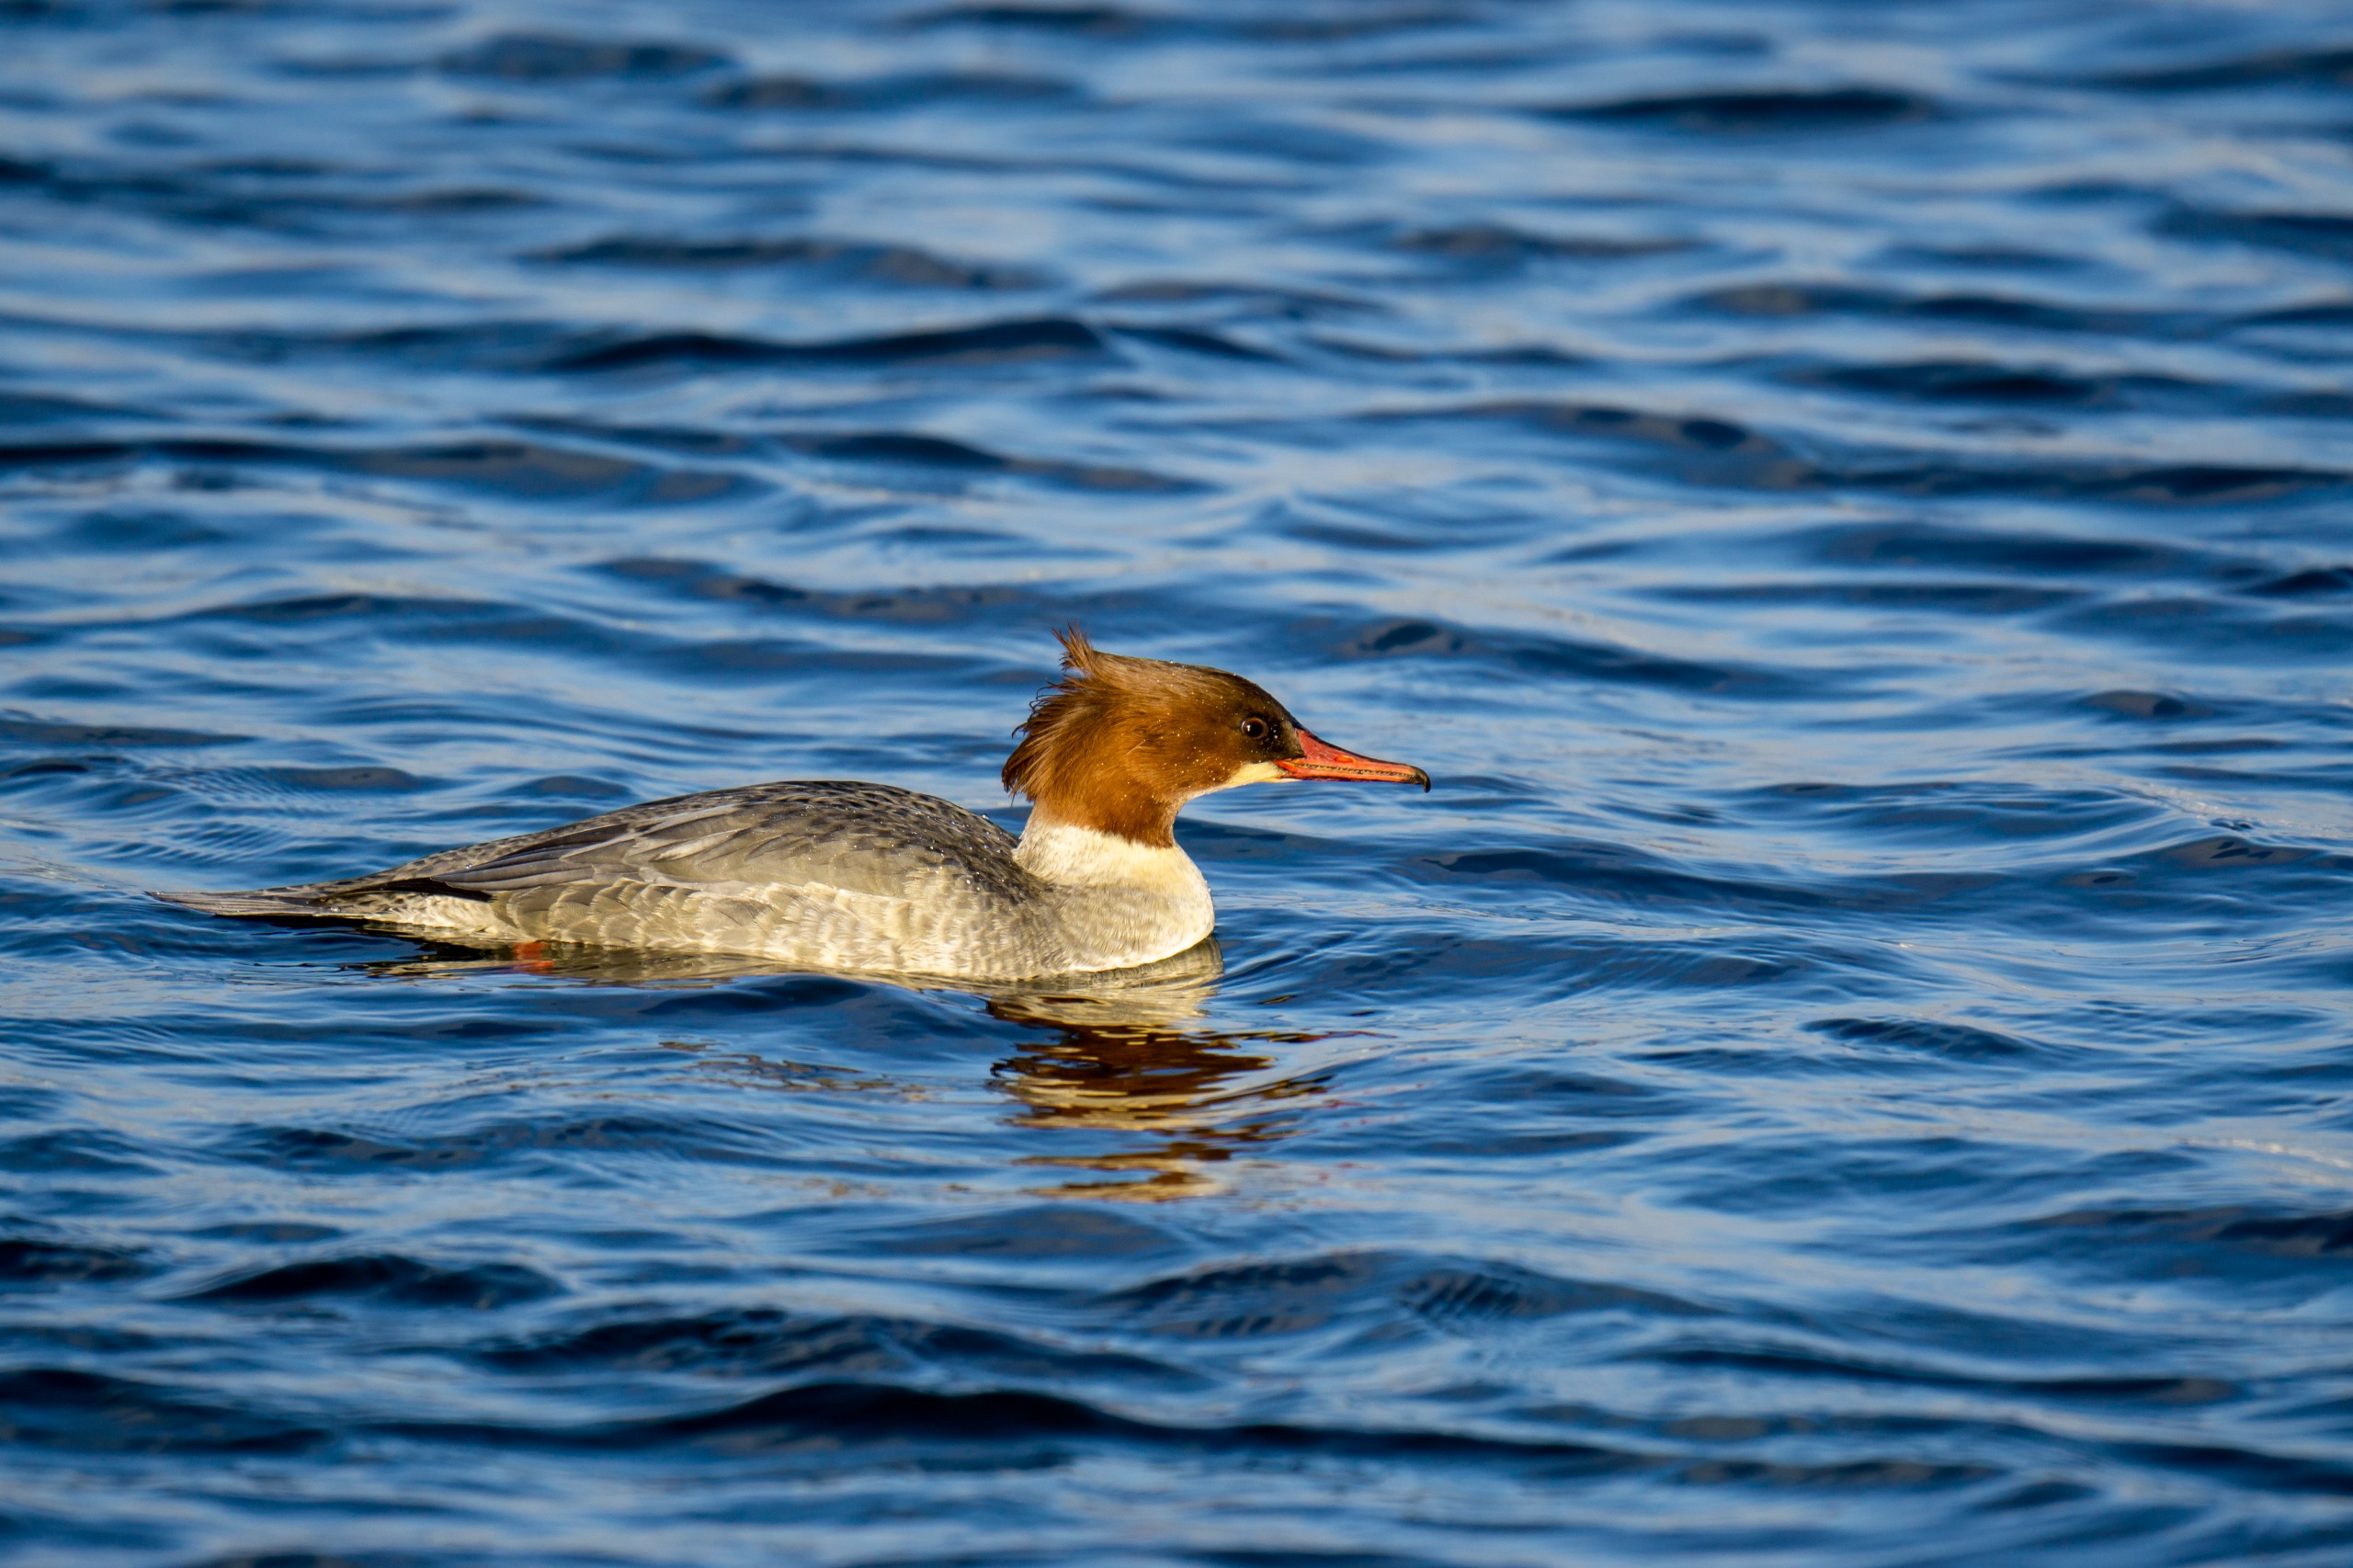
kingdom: Animalia
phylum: Chordata
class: Aves
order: Anseriformes
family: Anatidae
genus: Mergus
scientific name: Mergus merganser
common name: Stor skallesluger
